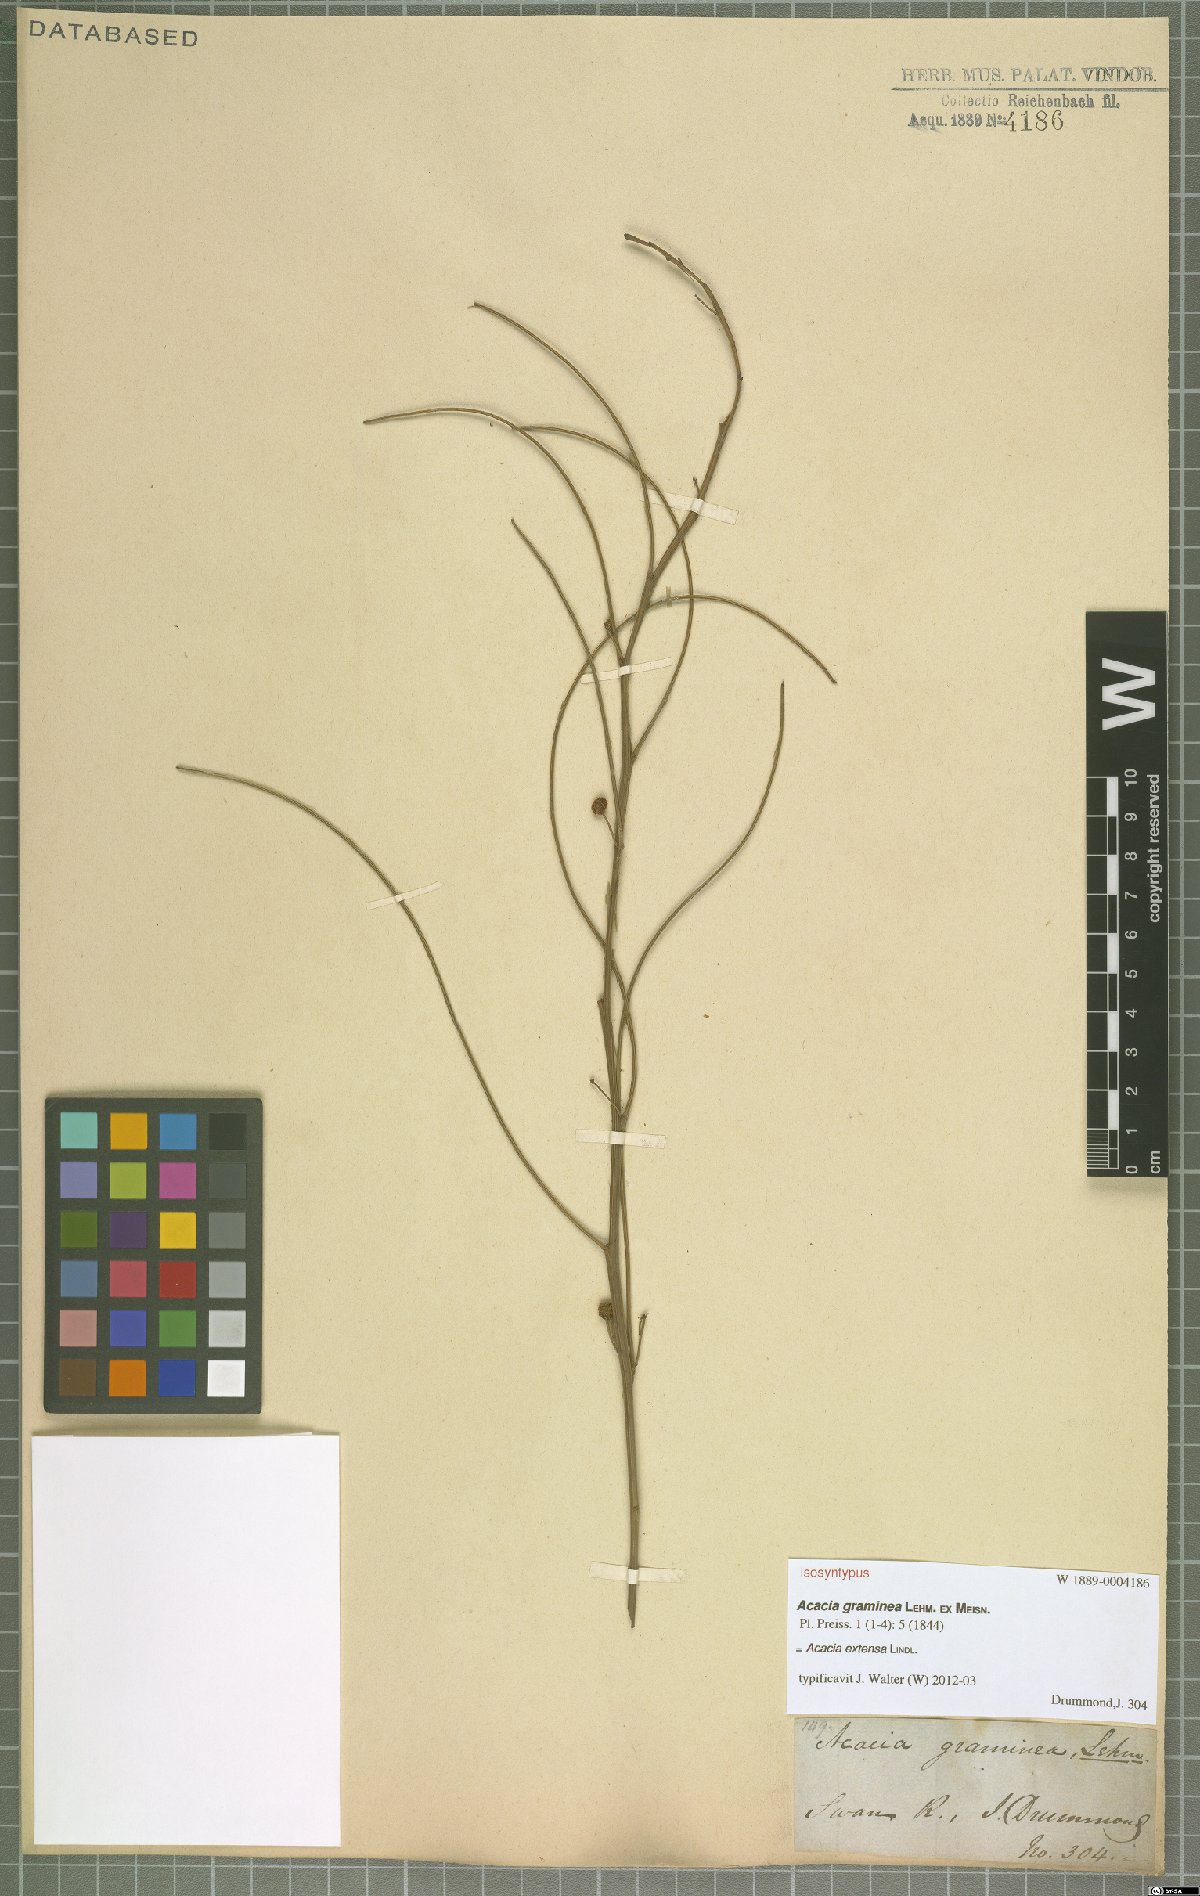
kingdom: Plantae
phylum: Tracheophyta
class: Magnoliopsida
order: Fabales
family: Fabaceae
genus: Acacia
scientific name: Acacia extensa
